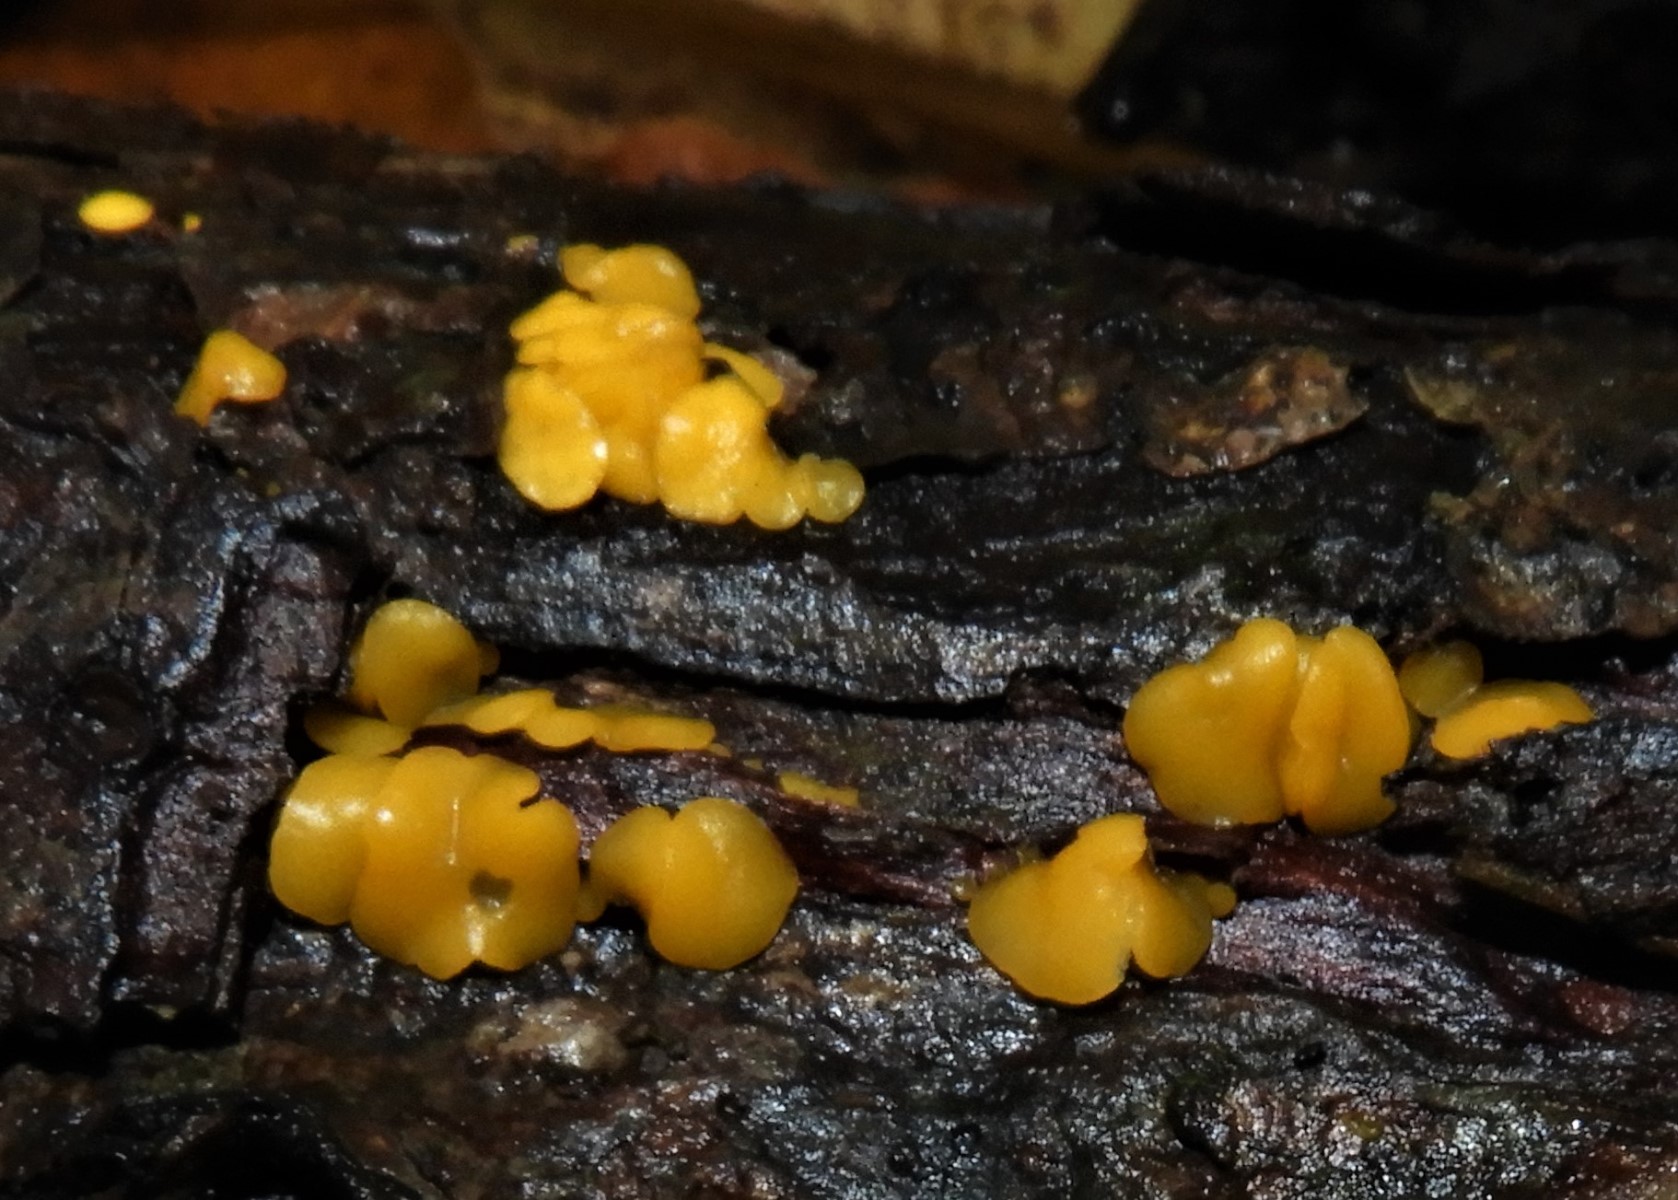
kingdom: Fungi
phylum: Ascomycota
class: Leotiomycetes
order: Helotiales
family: Pezizellaceae
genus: Calycina
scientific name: Calycina citrina
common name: almindelig gulskive
